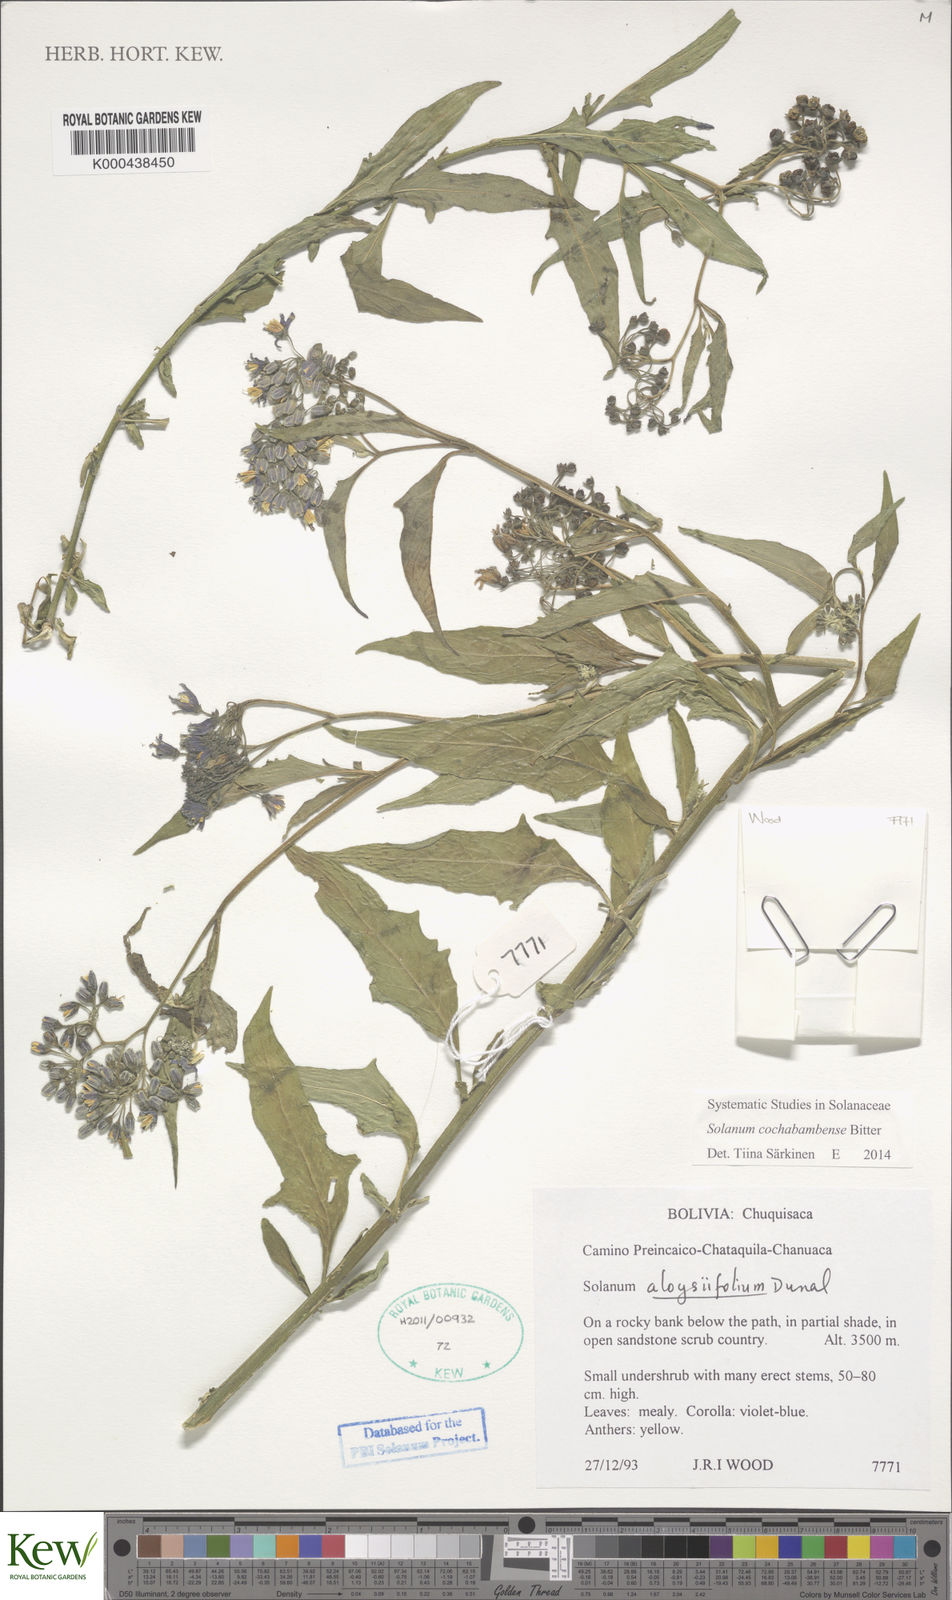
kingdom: Plantae
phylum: Tracheophyta
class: Magnoliopsida
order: Solanales
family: Solanaceae
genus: Solanum
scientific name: Solanum probolospermum
